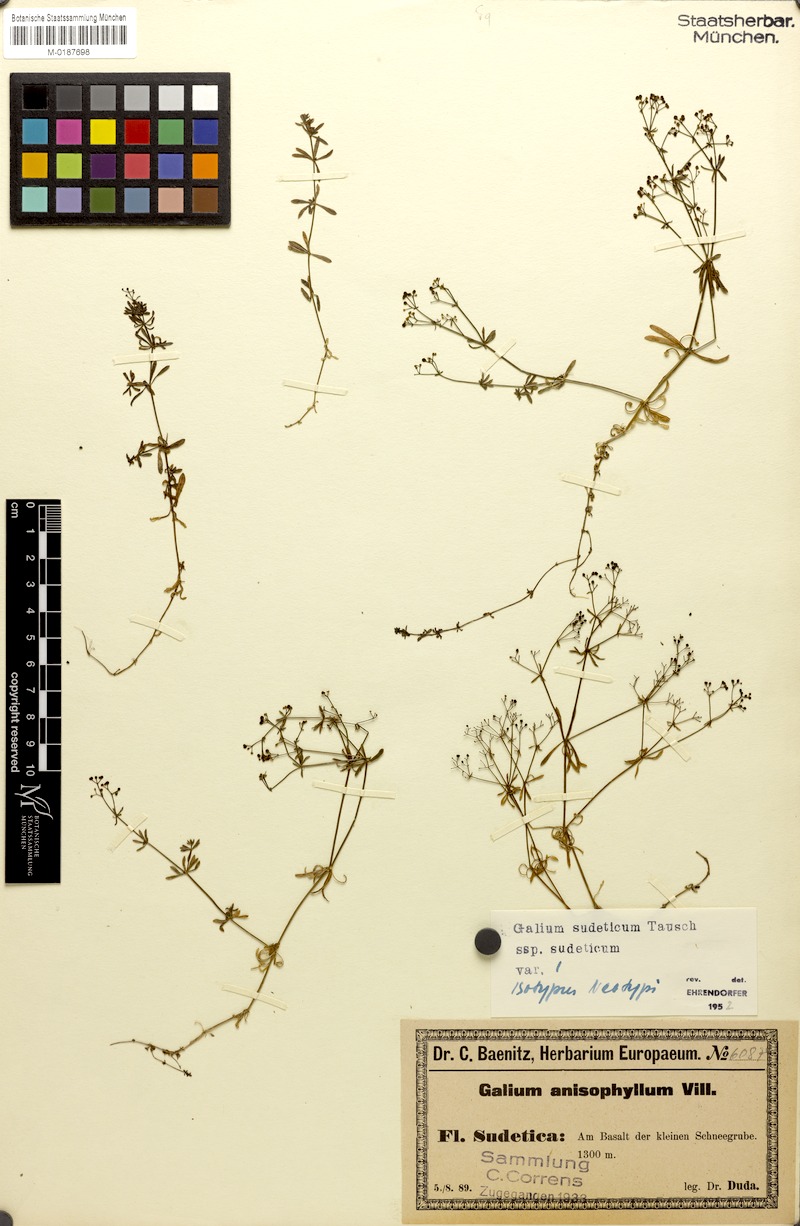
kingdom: Plantae
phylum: Tracheophyta
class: Magnoliopsida
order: Gentianales
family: Rubiaceae
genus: Galium
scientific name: Galium sudeticum
